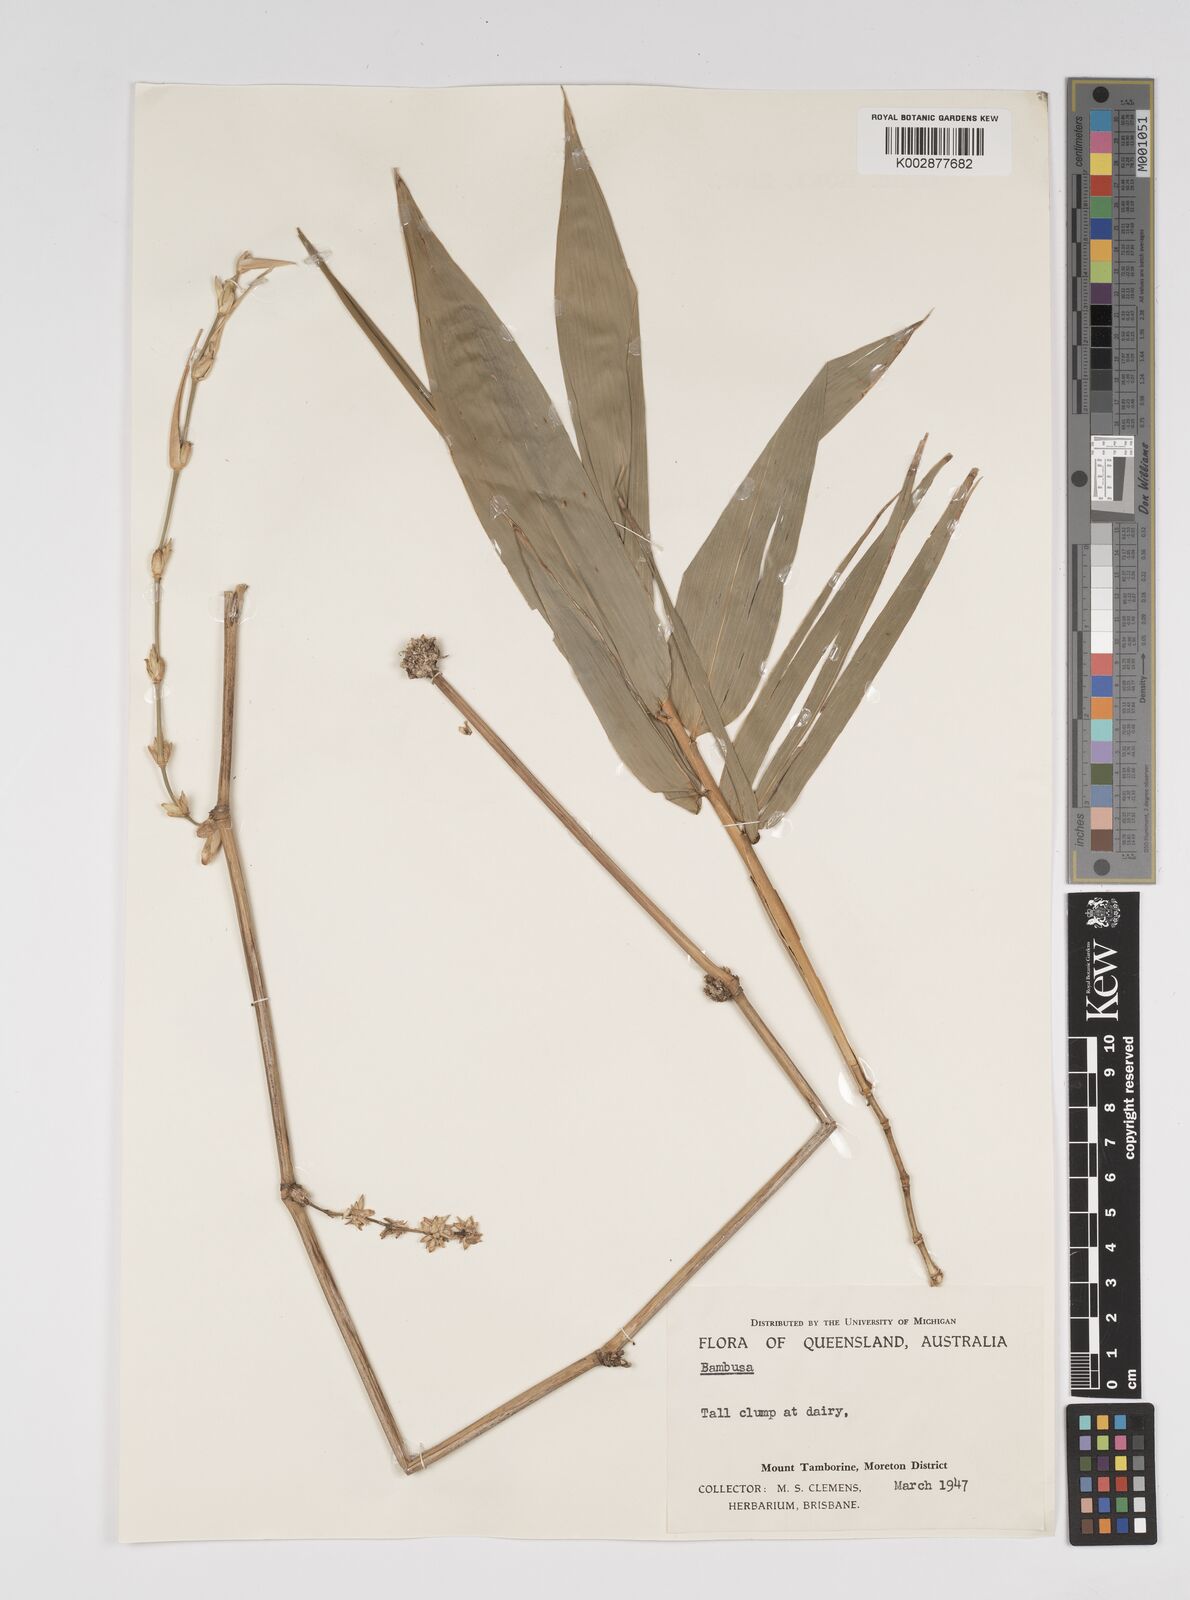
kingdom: Plantae
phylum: Tracheophyta
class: Liliopsida
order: Poales
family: Poaceae
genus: Bambusa
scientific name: Bambusa
